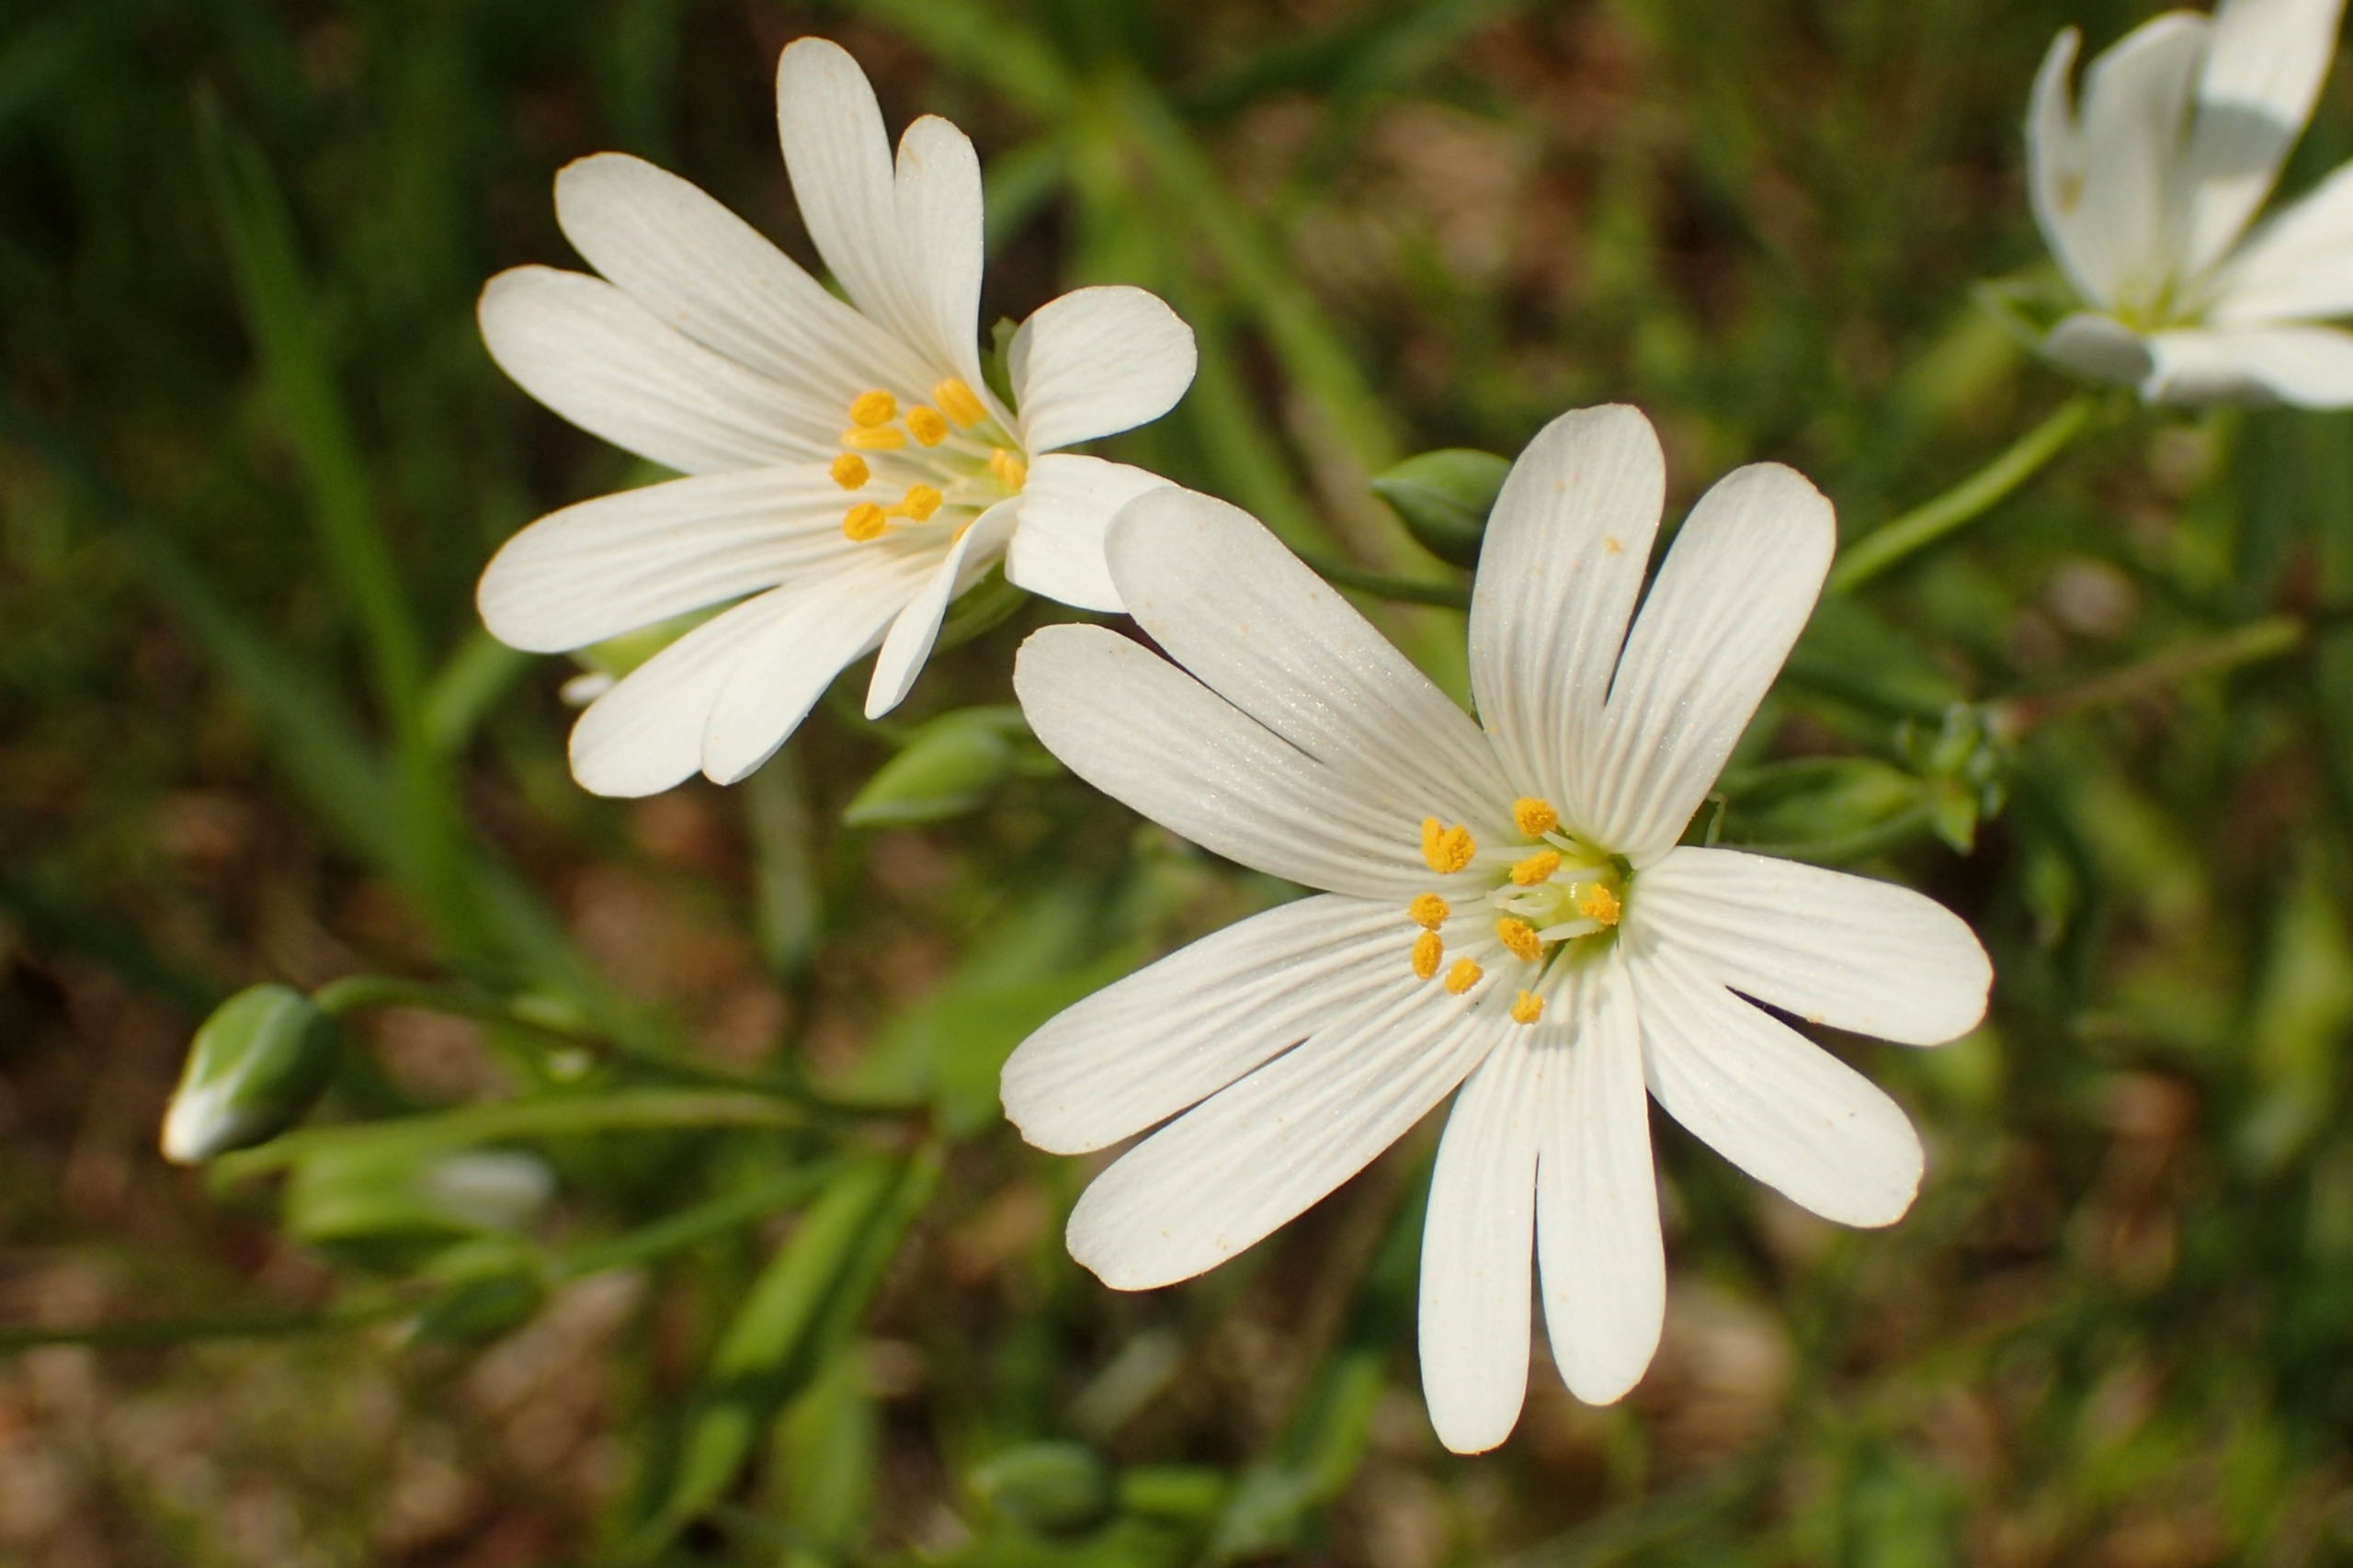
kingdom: Plantae
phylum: Tracheophyta
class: Magnoliopsida
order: Caryophyllales
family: Caryophyllaceae
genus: Rabelera
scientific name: Rabelera holostea
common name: Stor fladstjerne
